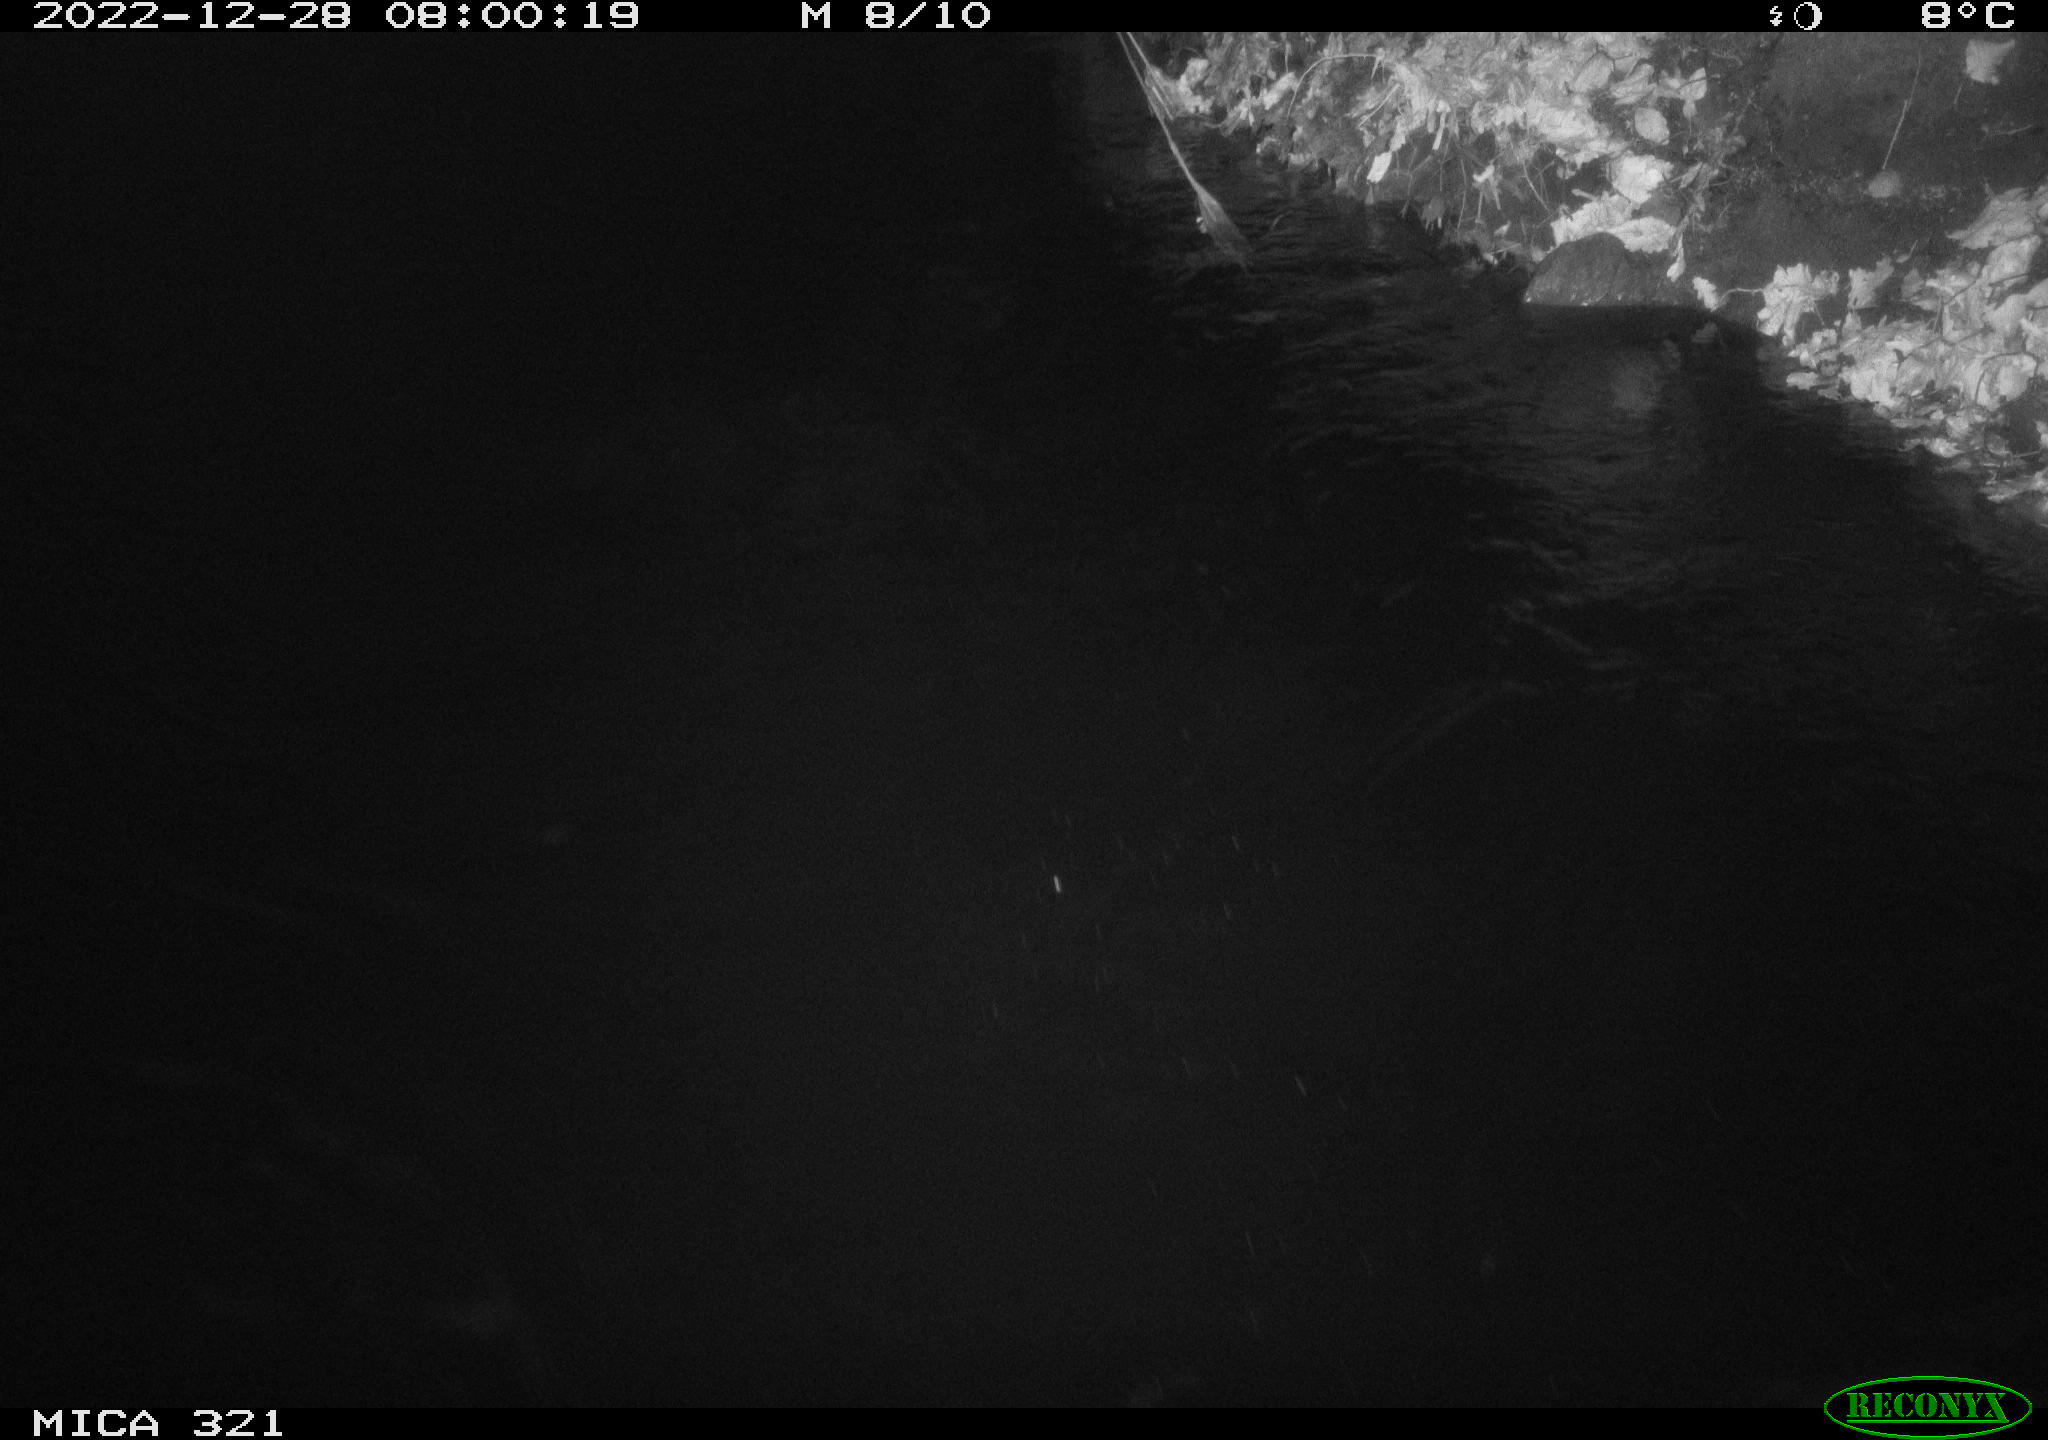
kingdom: Animalia
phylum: Chordata
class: Aves
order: Anseriformes
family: Anatidae
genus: Anas
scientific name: Anas
